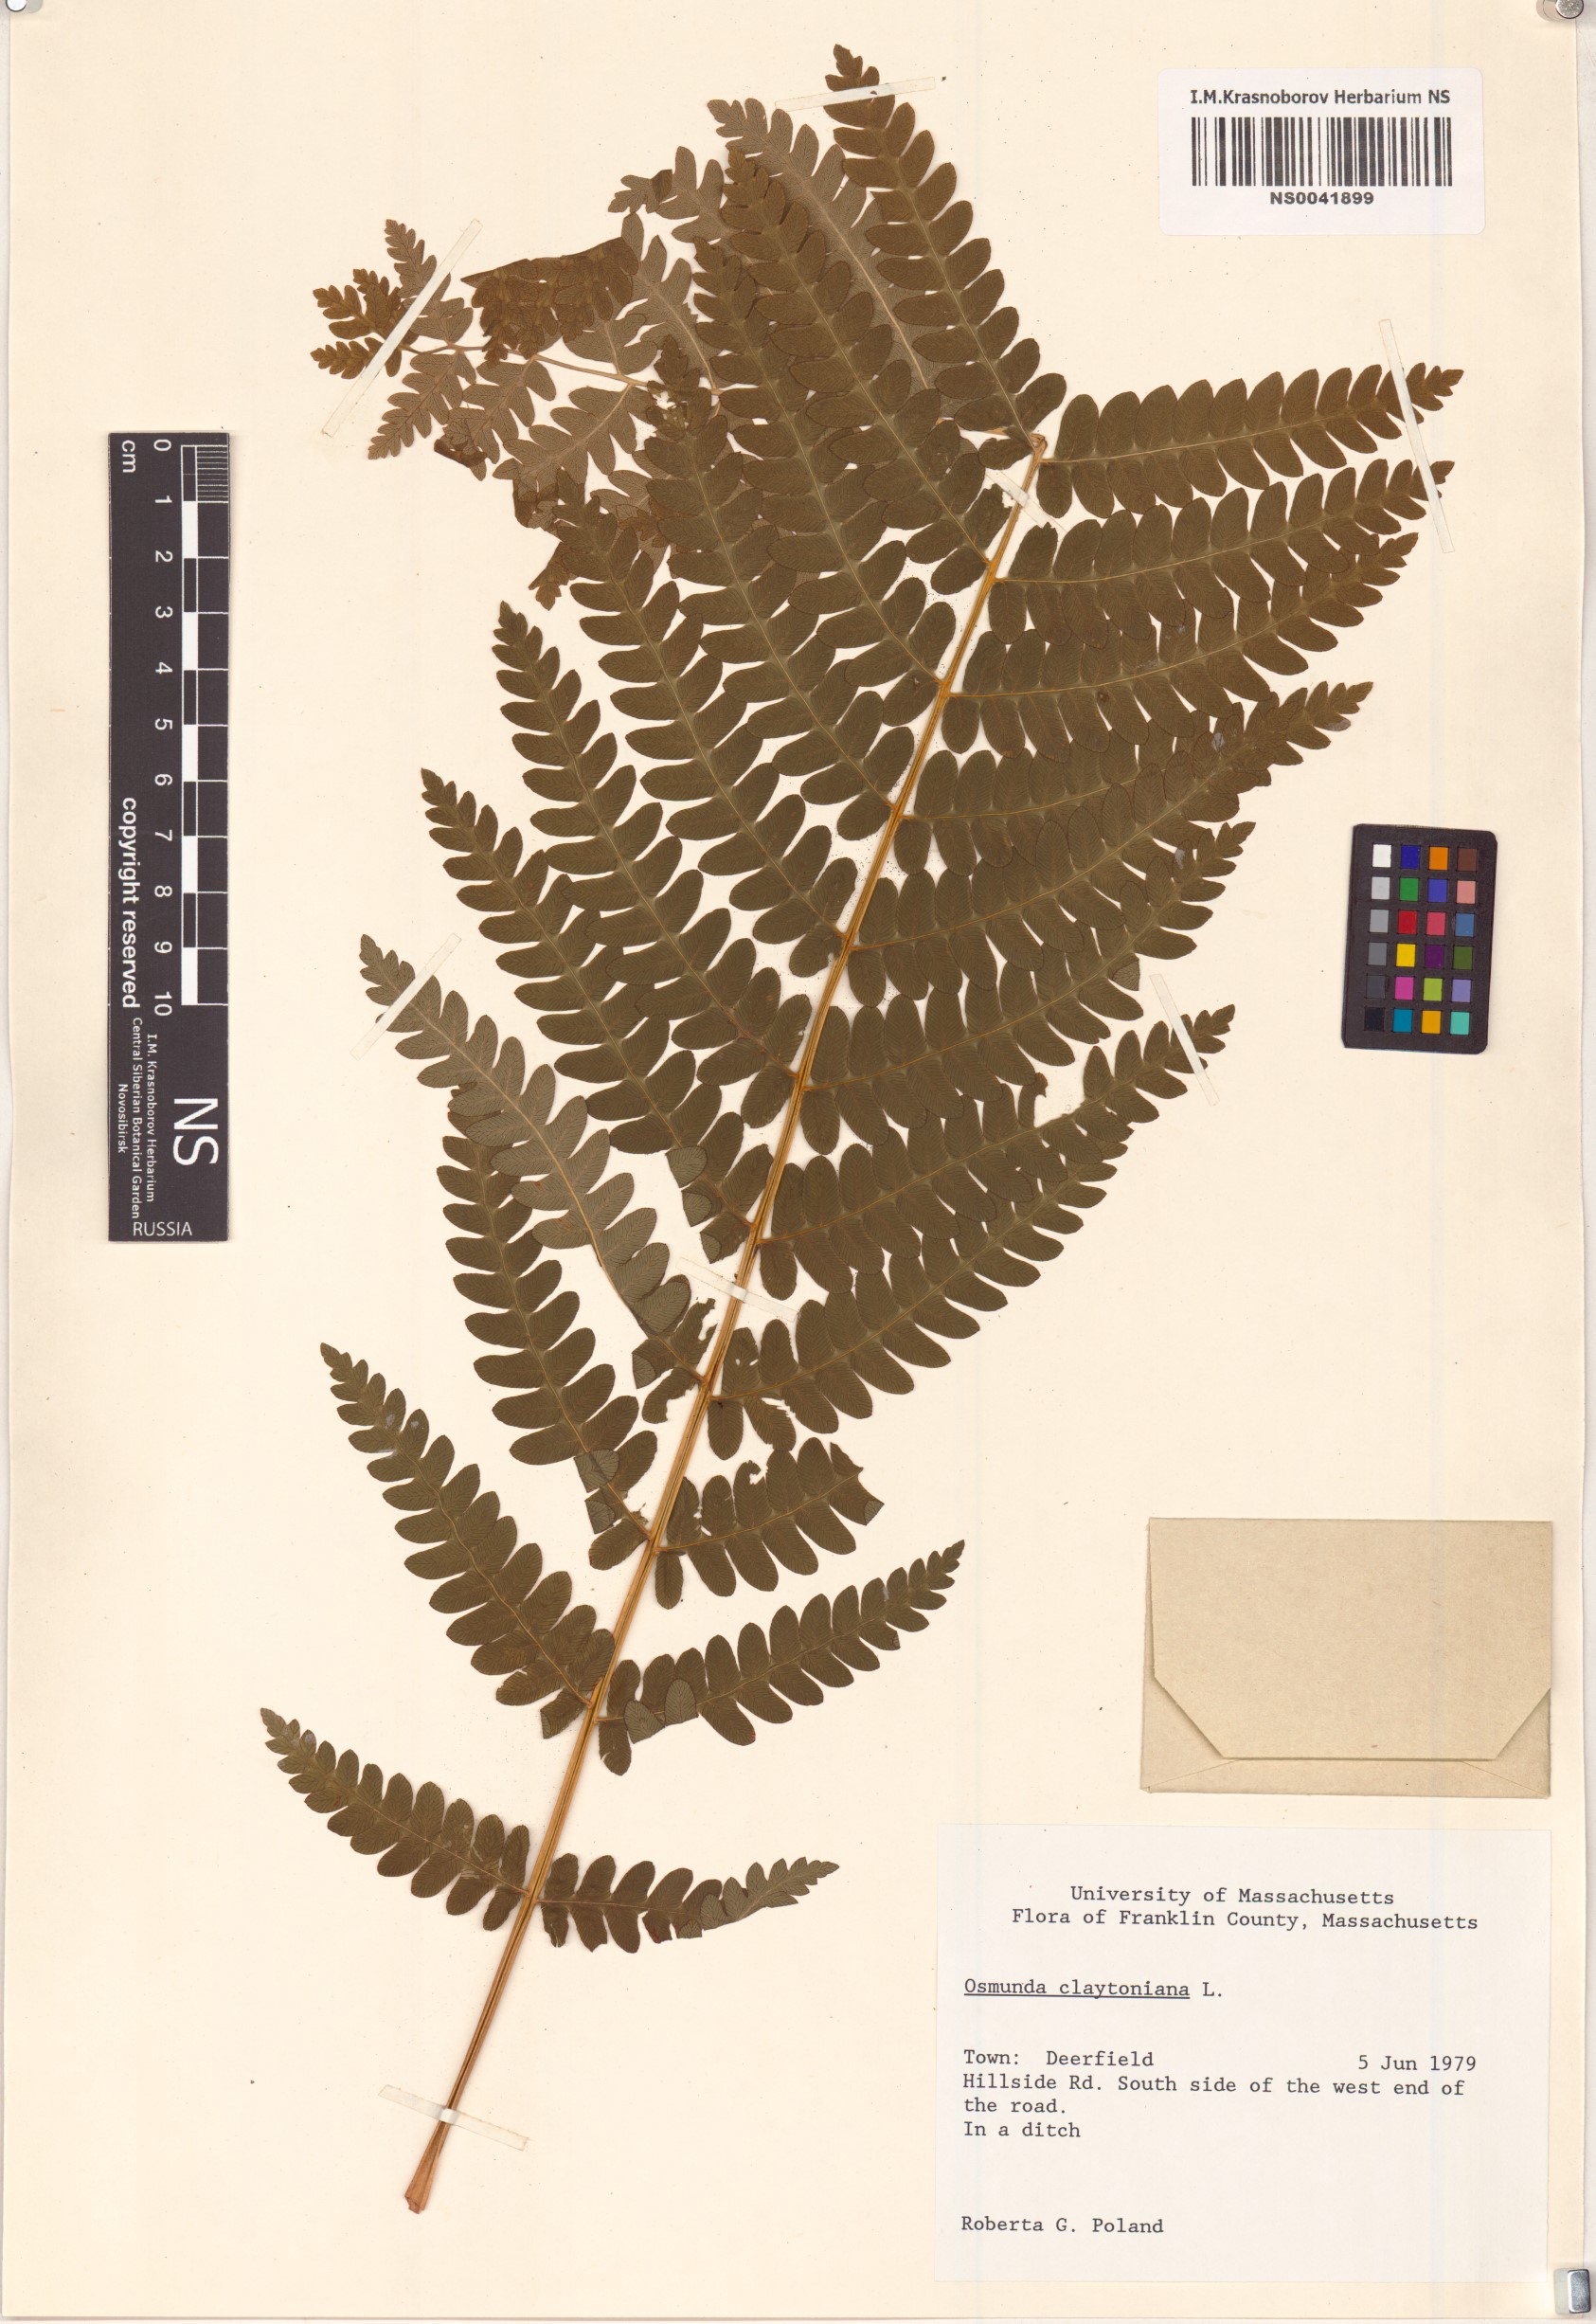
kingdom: Plantae
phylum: Tracheophyta
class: Polypodiopsida
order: Osmundales
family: Osmundaceae
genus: Claytosmunda
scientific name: Claytosmunda claytoniana
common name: Clayton's fern
